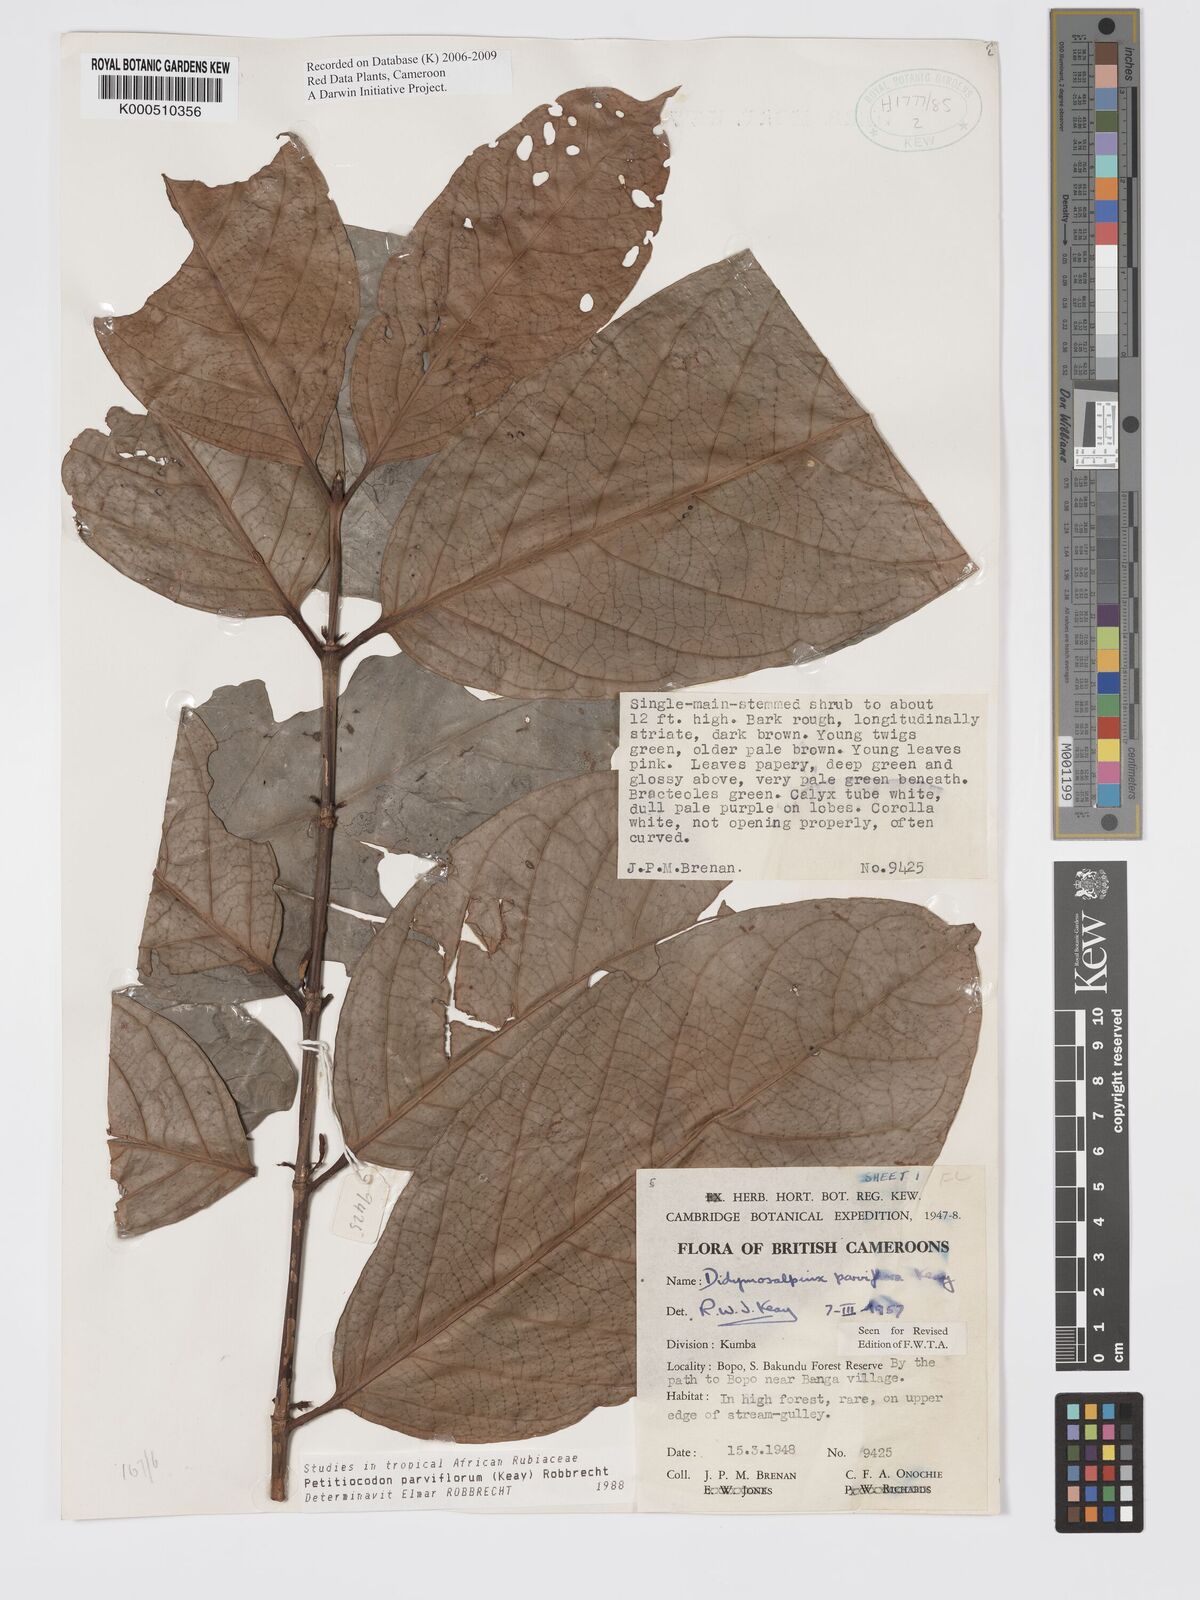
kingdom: Plantae
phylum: Tracheophyta
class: Magnoliopsida
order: Gentianales
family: Rubiaceae
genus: Petitiocodon
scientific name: Petitiocodon parviflorum
